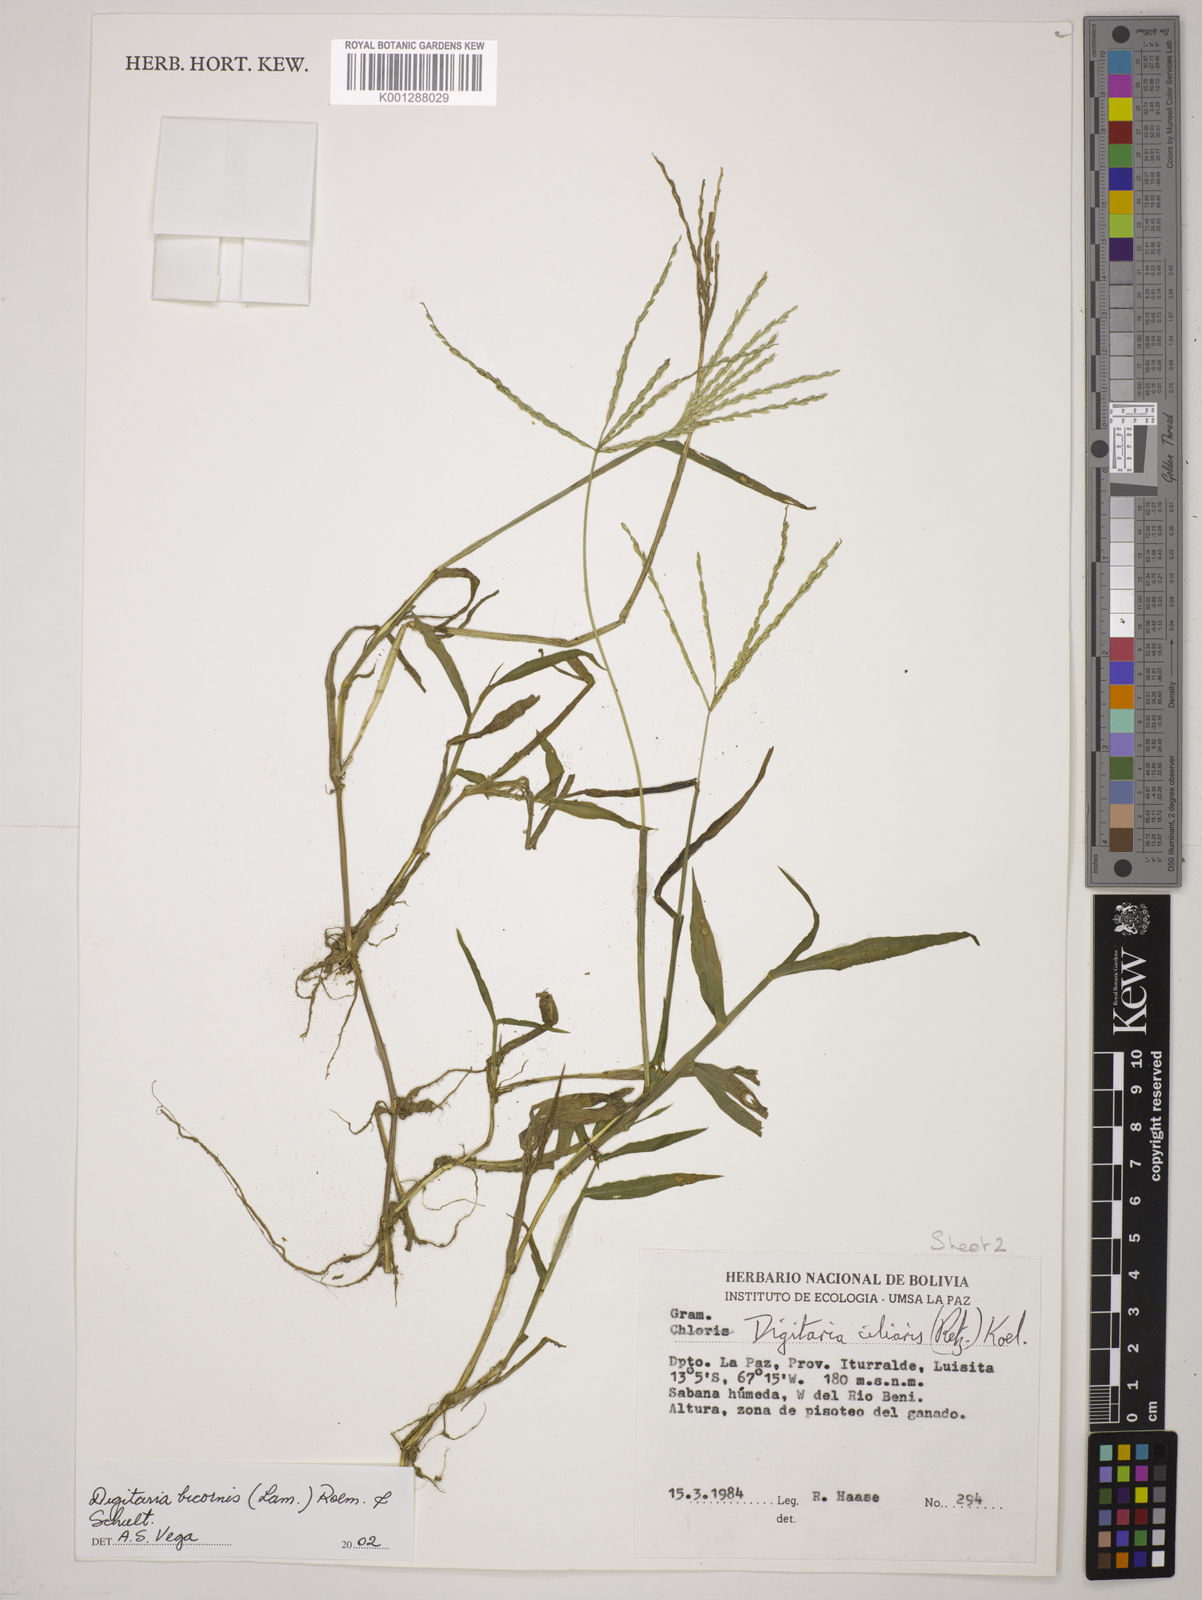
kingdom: Plantae
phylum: Tracheophyta
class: Liliopsida
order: Poales
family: Poaceae
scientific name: Poaceae
